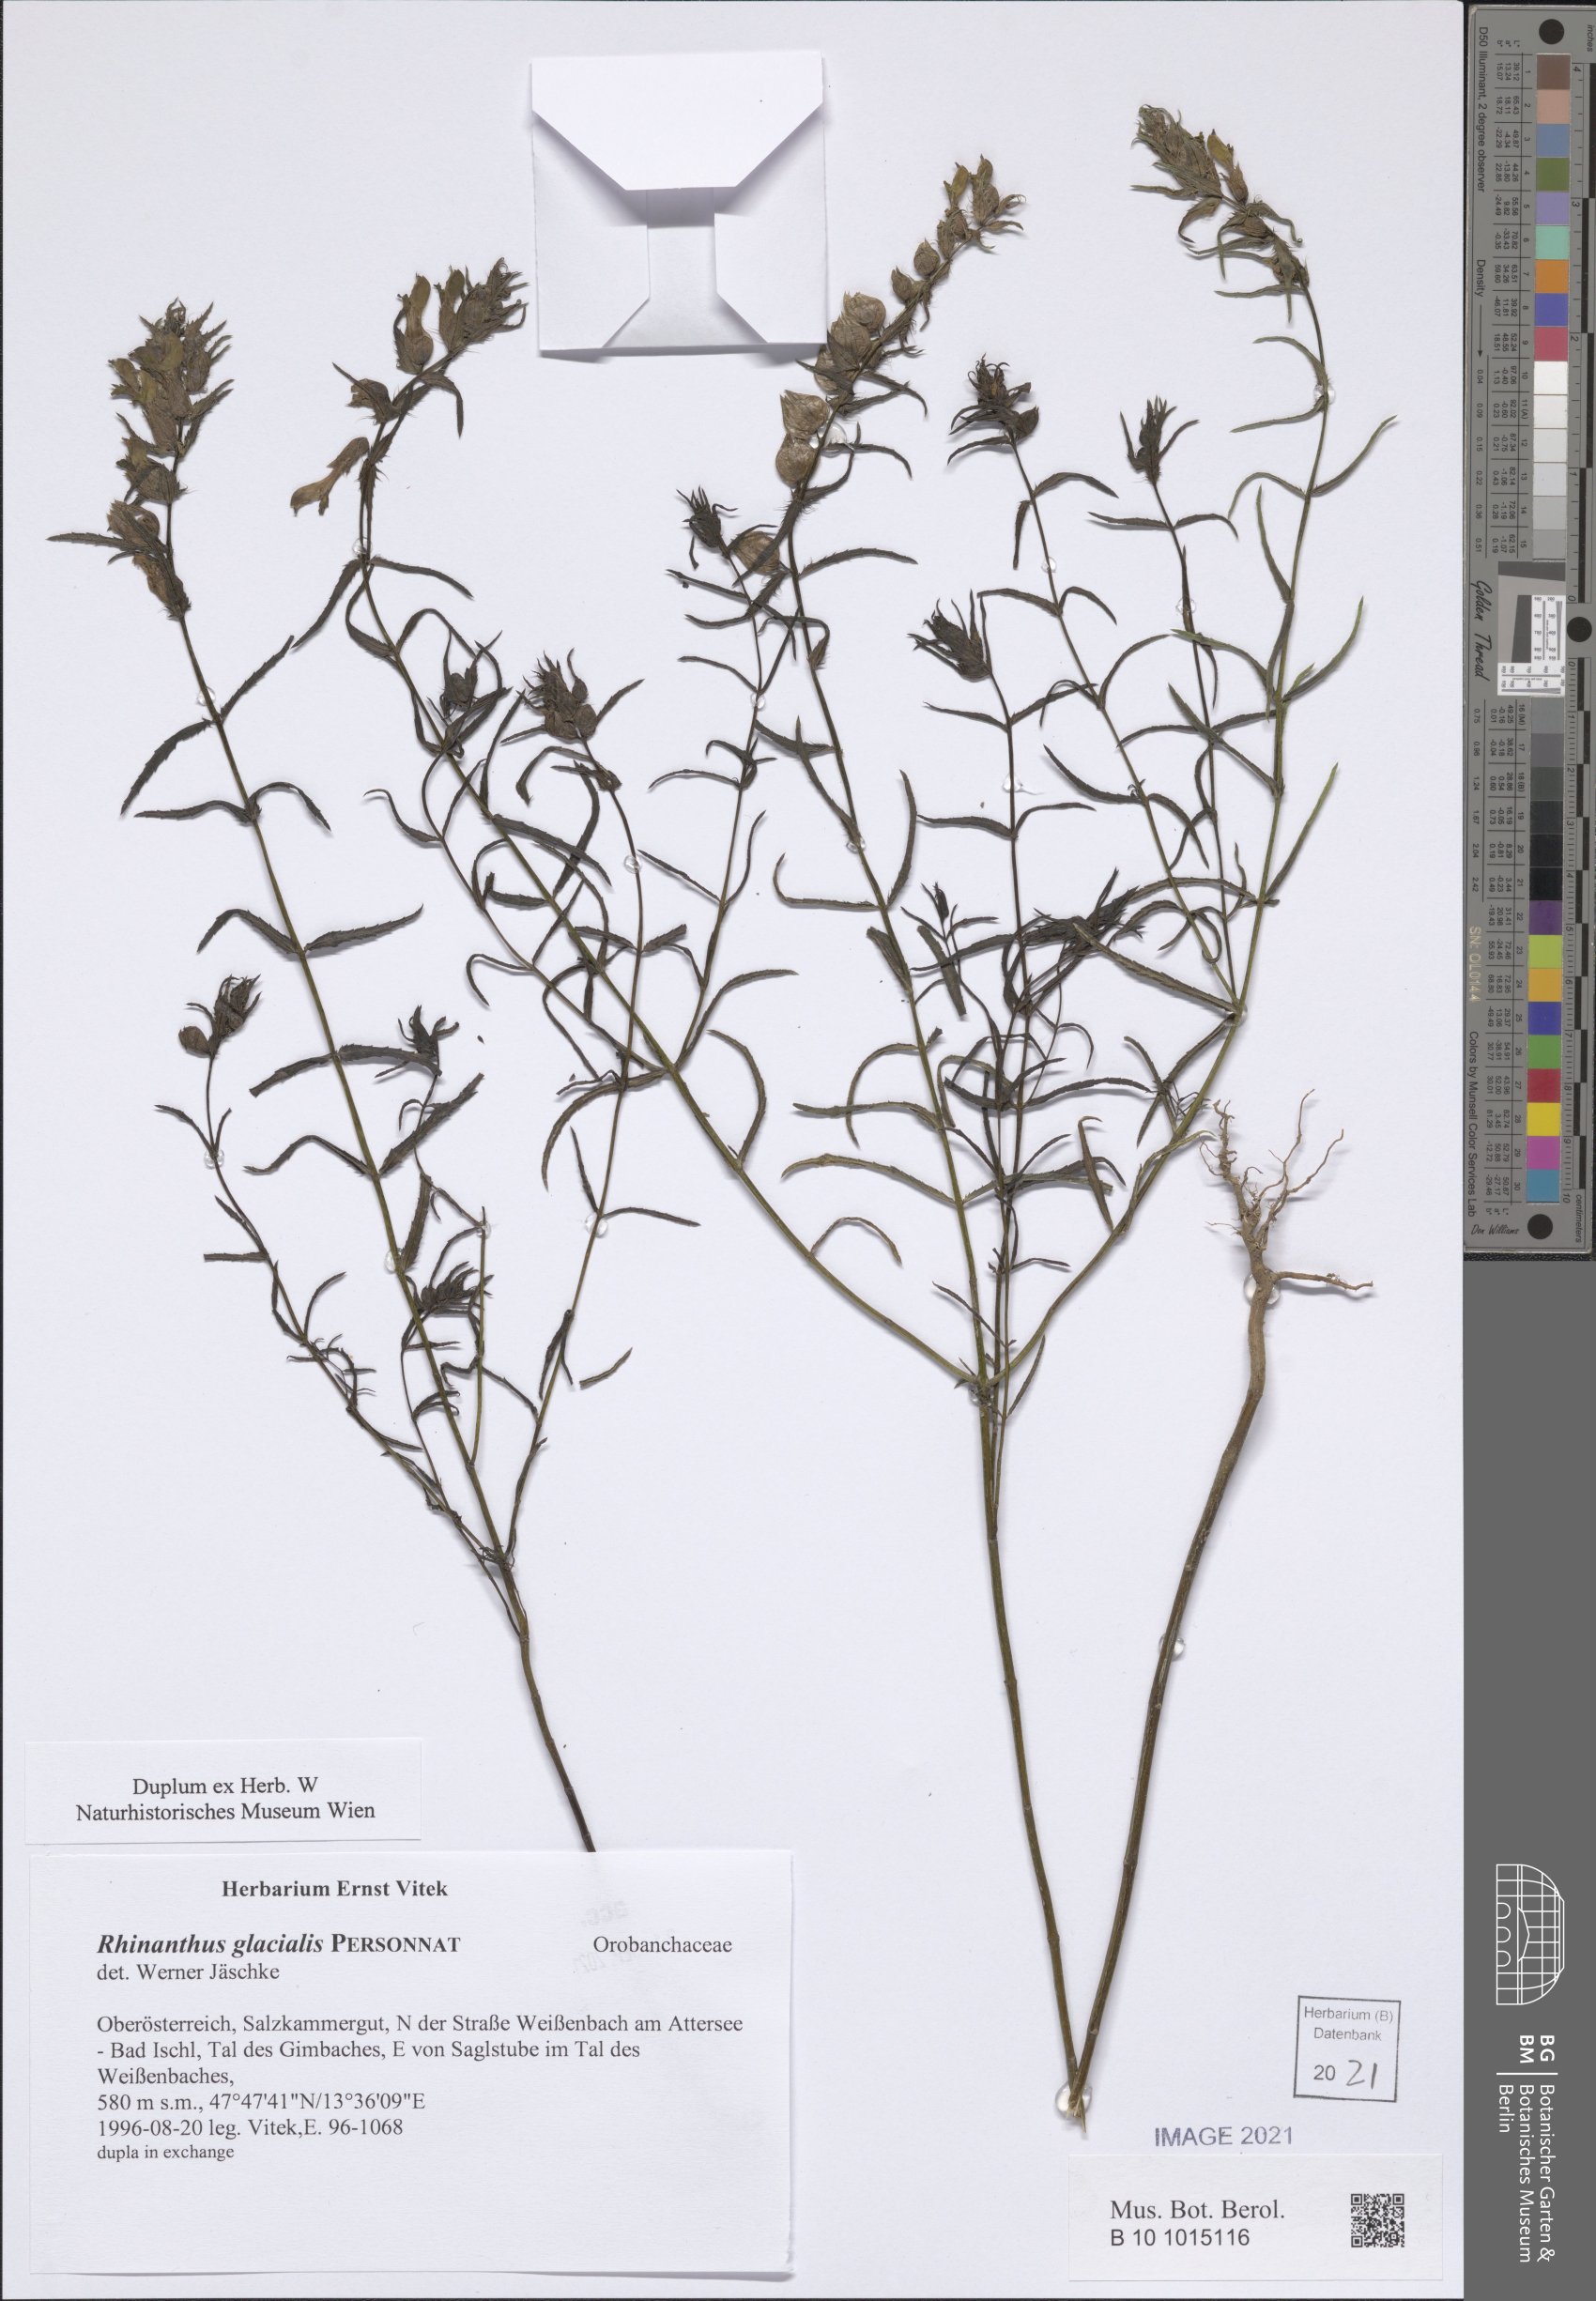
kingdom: Plantae
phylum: Tracheophyta
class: Magnoliopsida
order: Lamiales
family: Orobanchaceae
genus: Rhinanthus
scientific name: Rhinanthus glacialis
